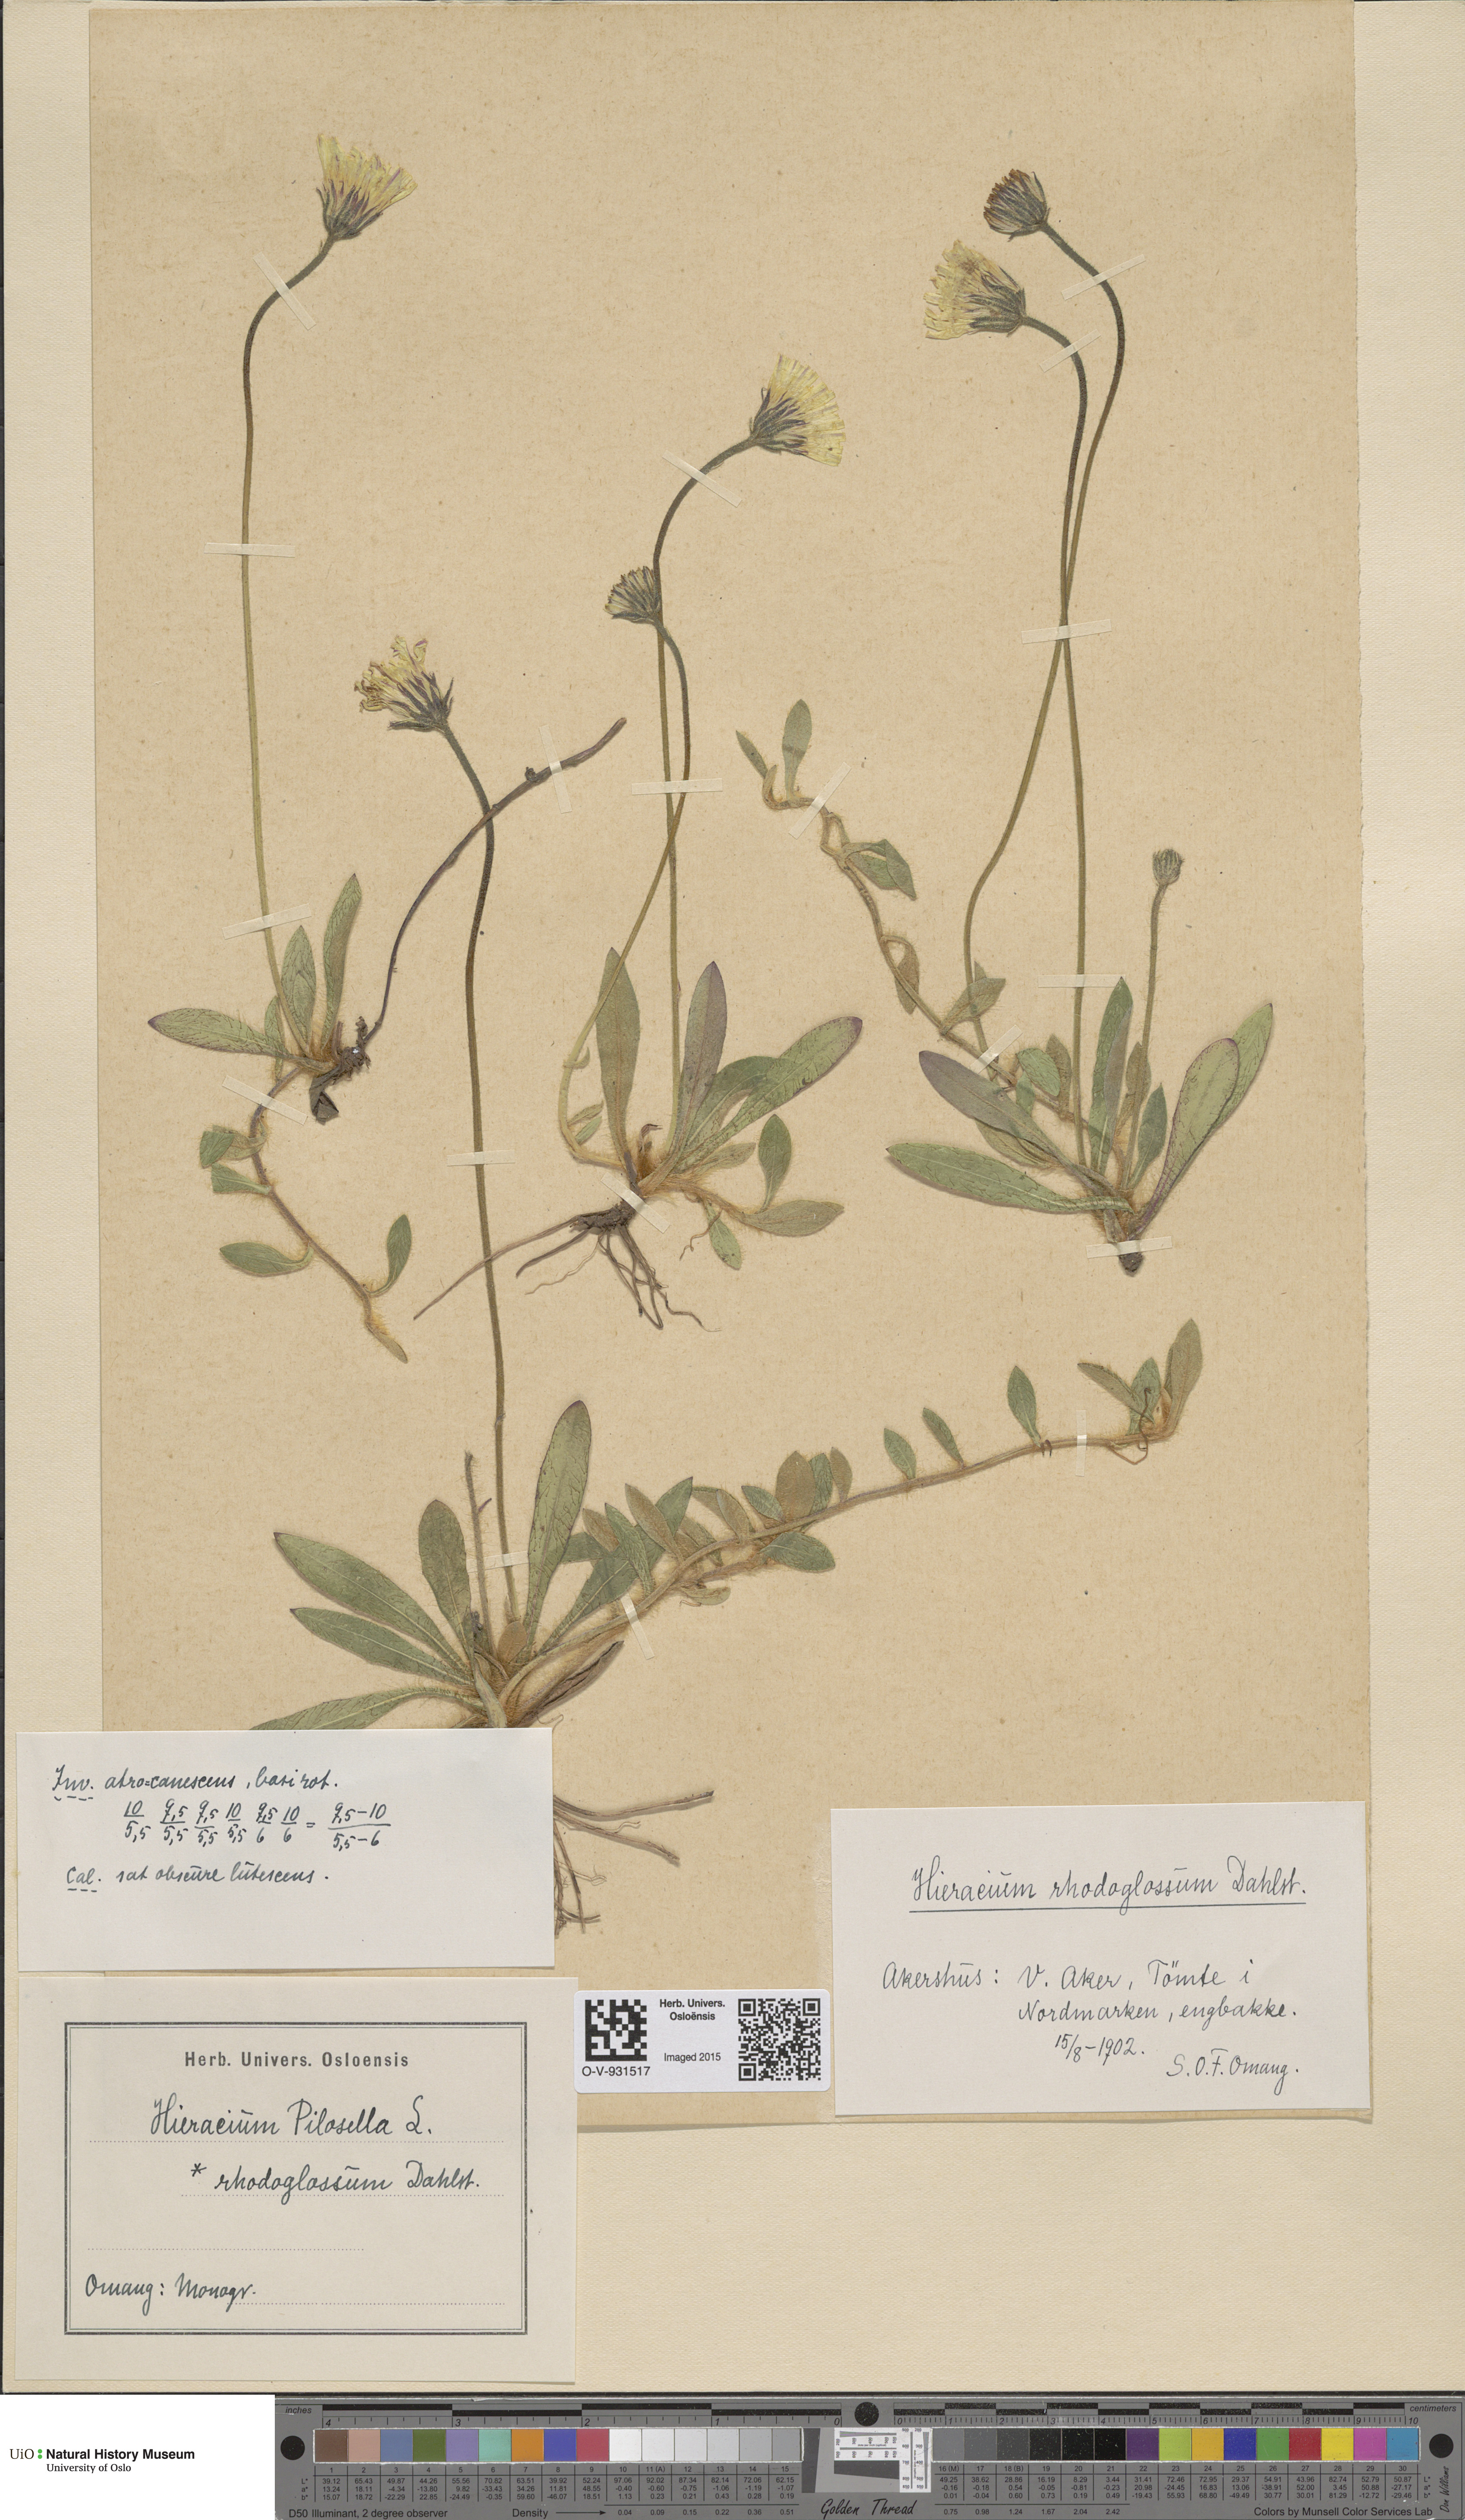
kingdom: Plantae
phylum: Tracheophyta
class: Magnoliopsida
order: Asterales
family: Asteraceae
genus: Pilosella
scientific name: Pilosella officinarum
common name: Mouse-ear hawkweed
